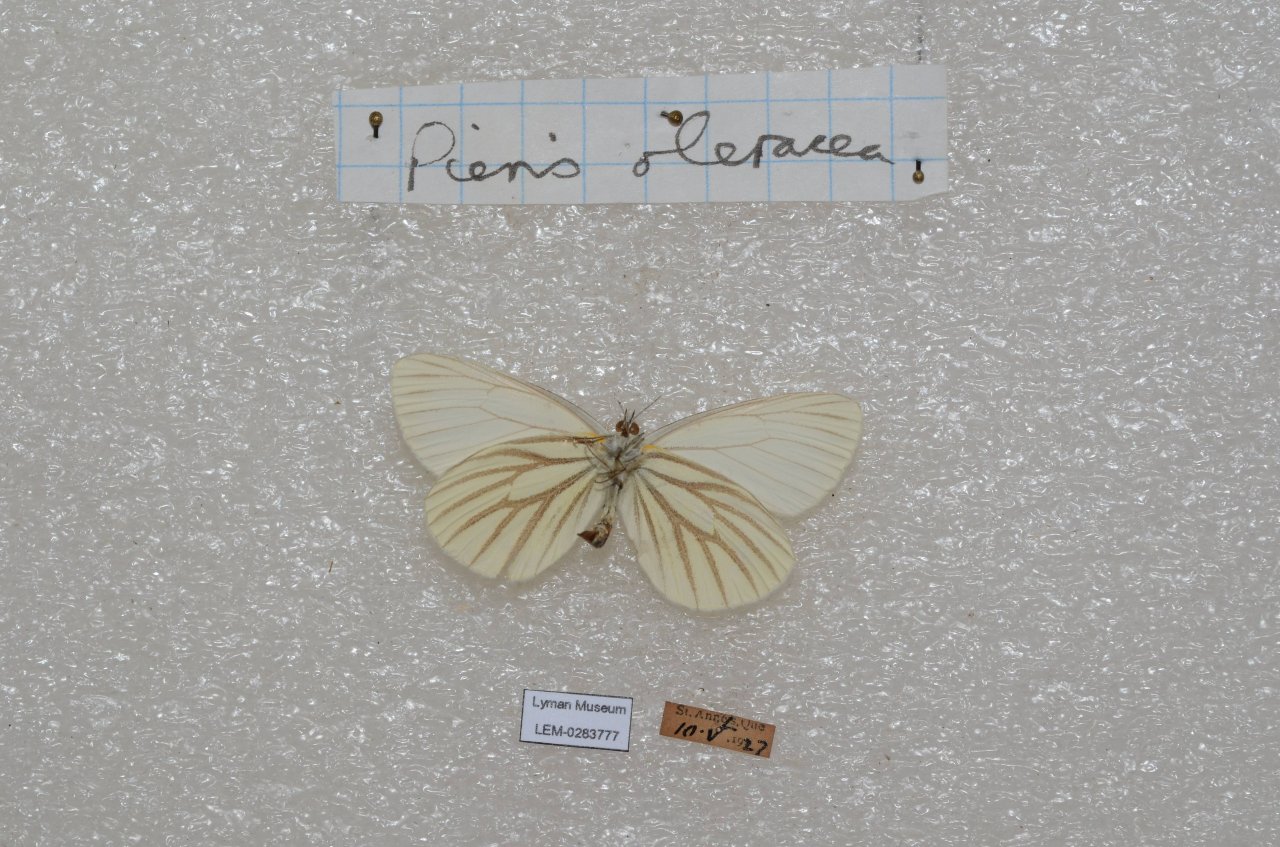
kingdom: Animalia
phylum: Arthropoda
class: Insecta
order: Lepidoptera
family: Pieridae
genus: Pieris
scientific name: Pieris oleracea
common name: Mustard White
